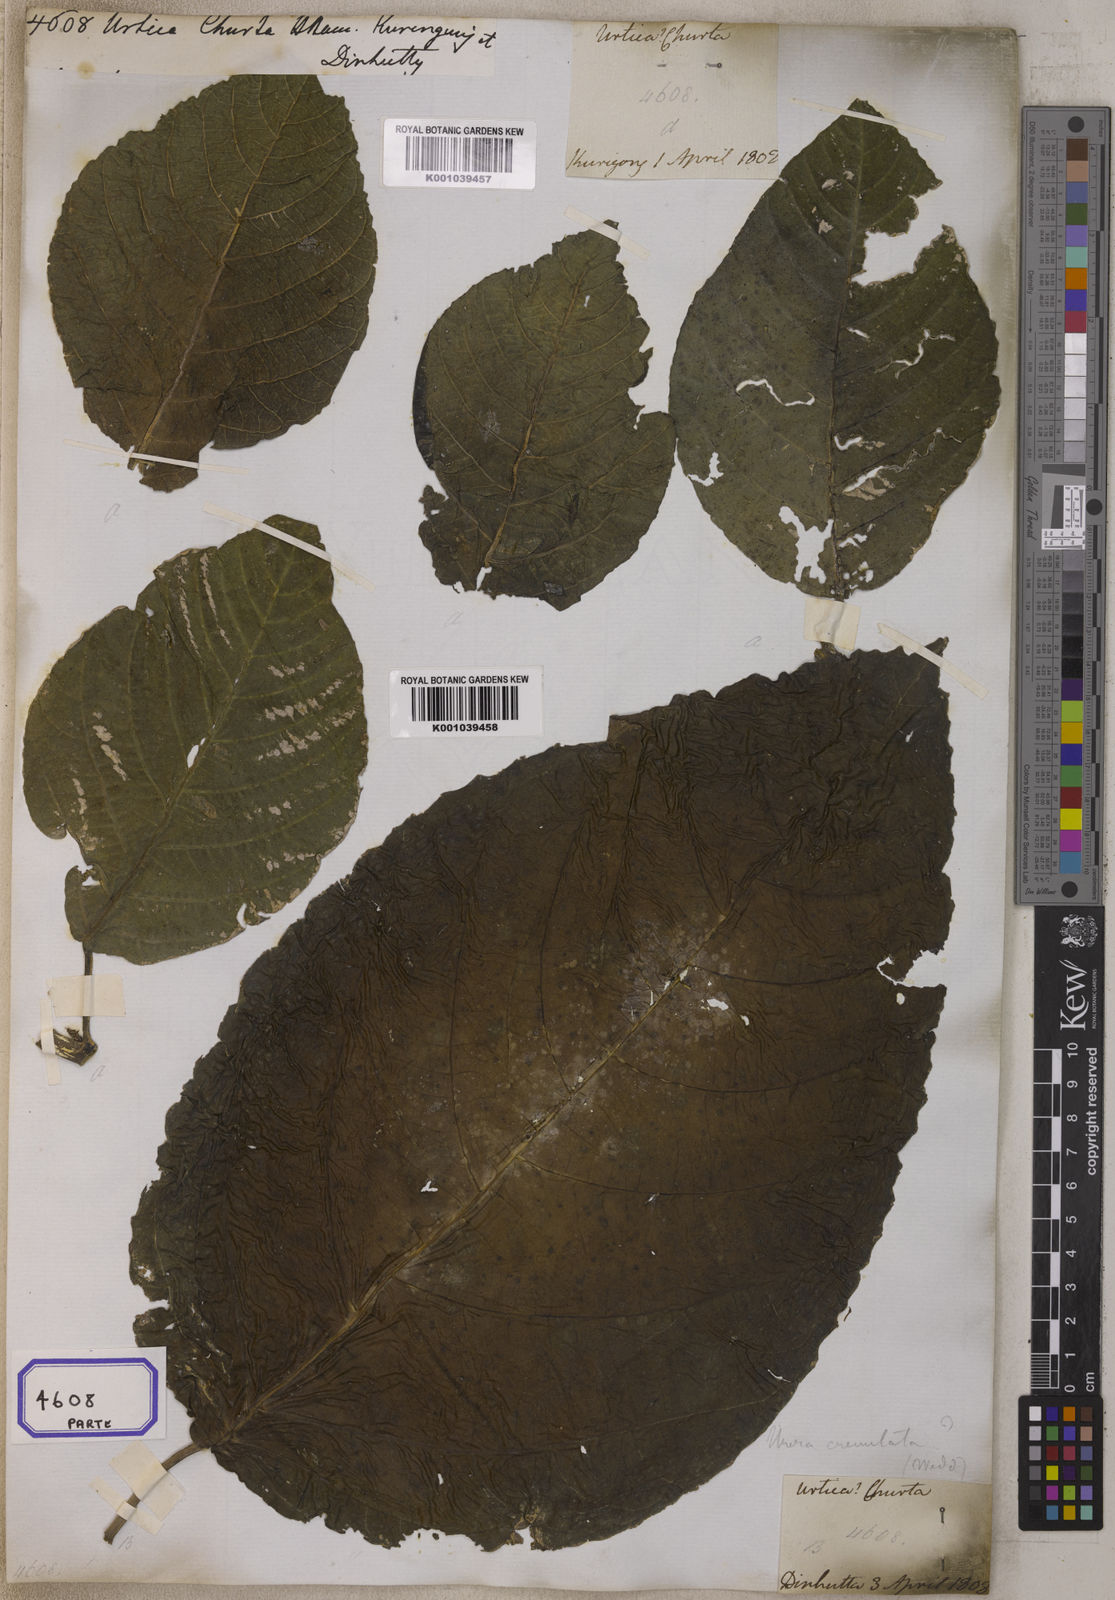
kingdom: Plantae
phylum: Tracheophyta
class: Magnoliopsida
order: Rosales
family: Urticaceae
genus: Dendrocnide
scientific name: Dendrocnide sinuata
